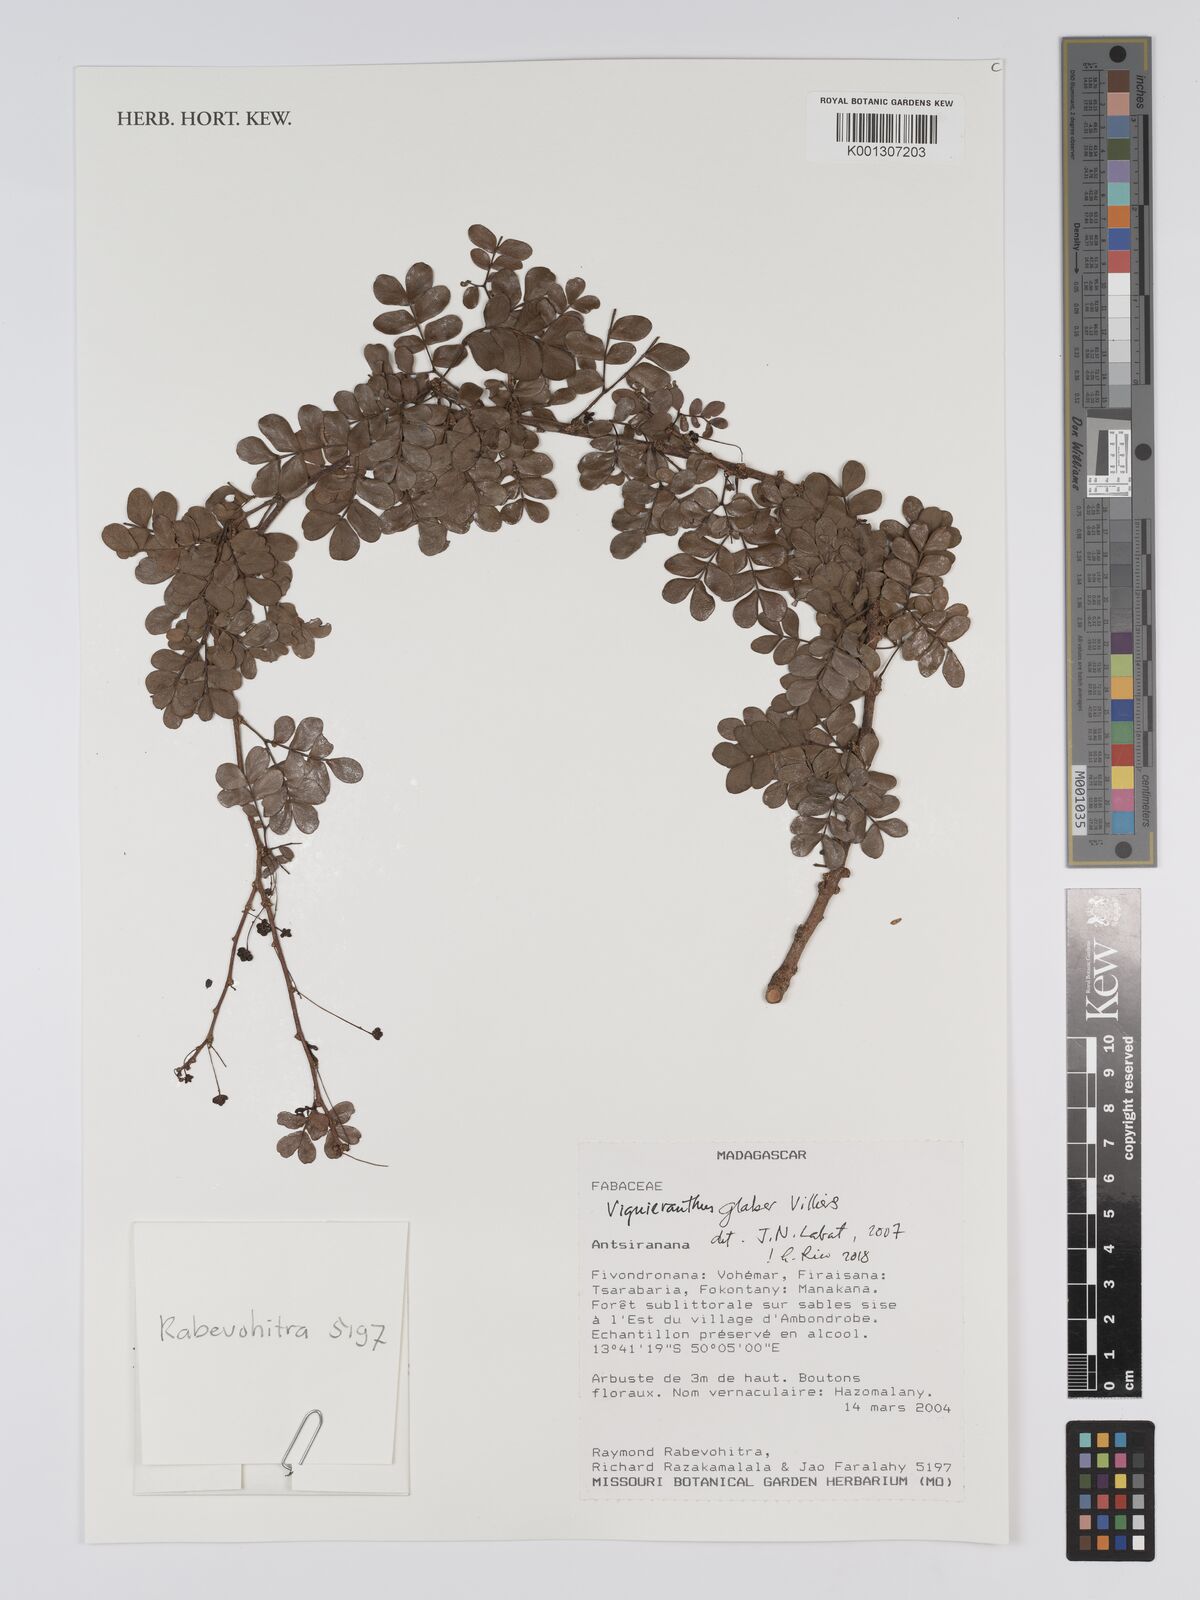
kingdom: Plantae
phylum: Tracheophyta
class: Magnoliopsida
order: Fabales
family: Fabaceae
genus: Viguieranthus
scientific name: Viguieranthus glaber
